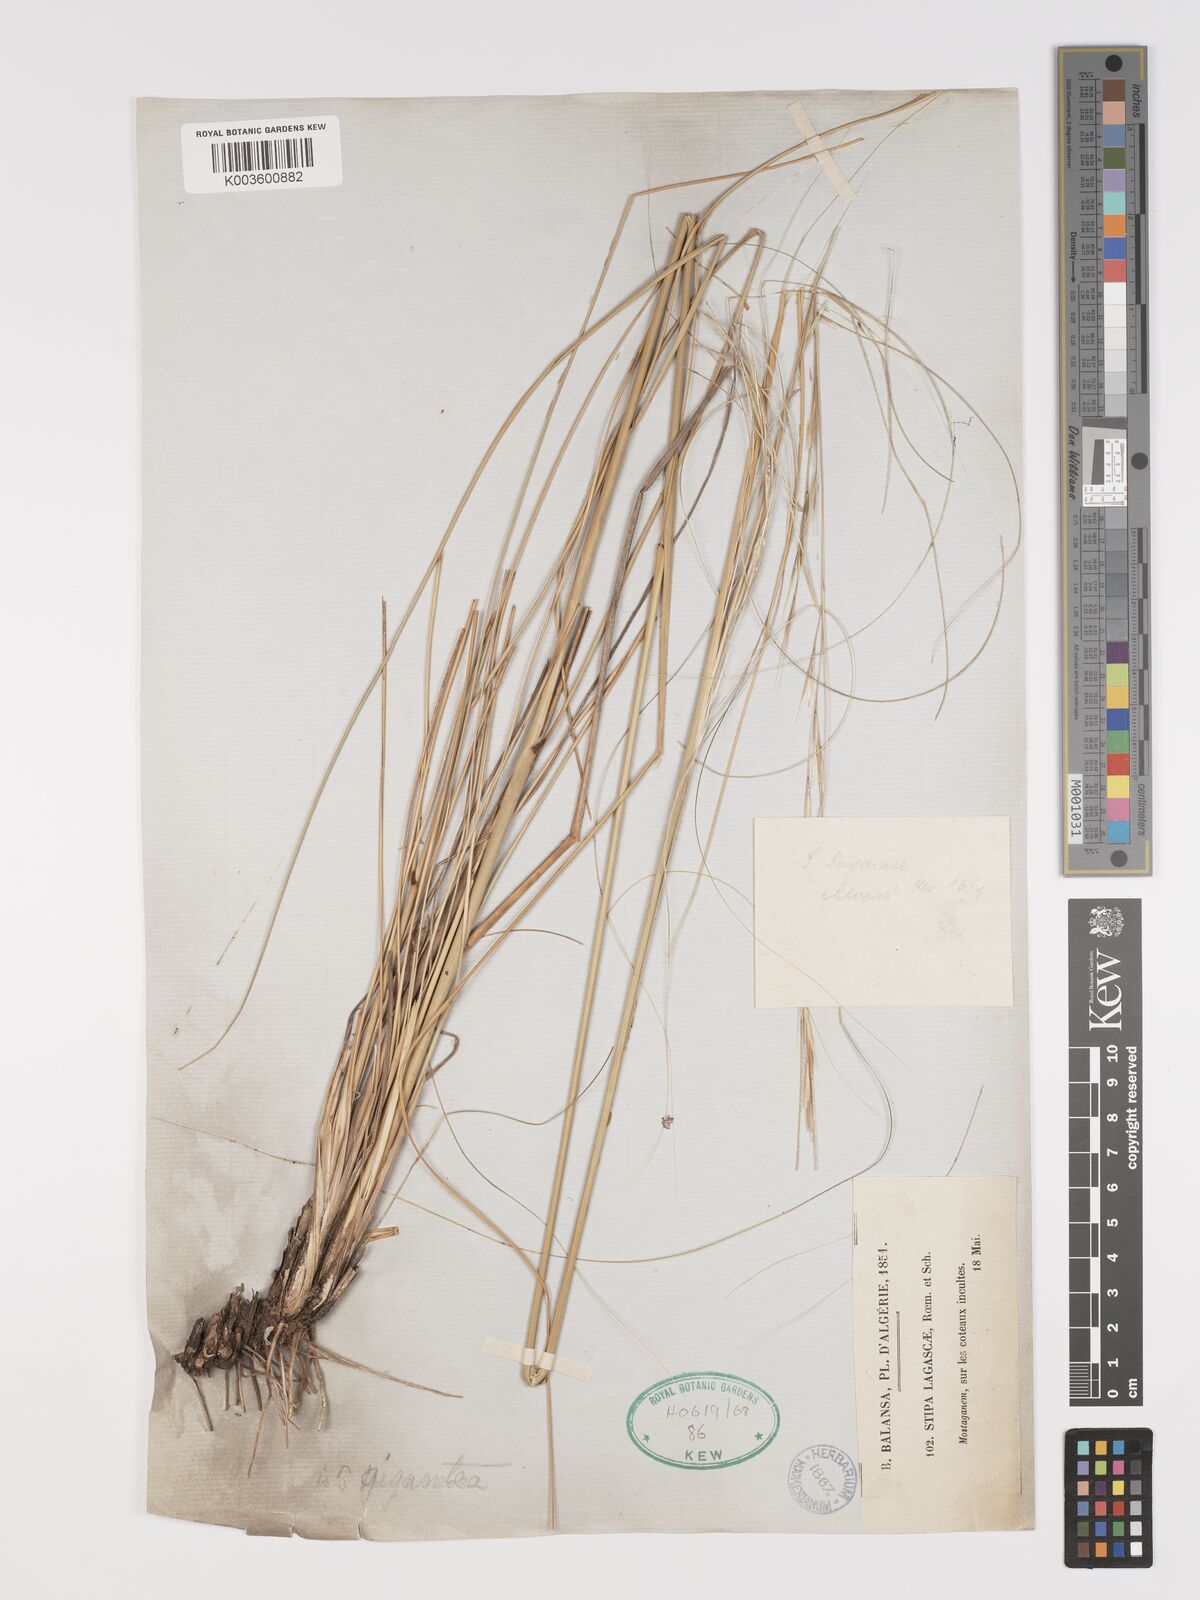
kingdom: Plantae
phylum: Tracheophyta
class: Liliopsida
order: Poales
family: Poaceae
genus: Stipa
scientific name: Stipa lagascae
